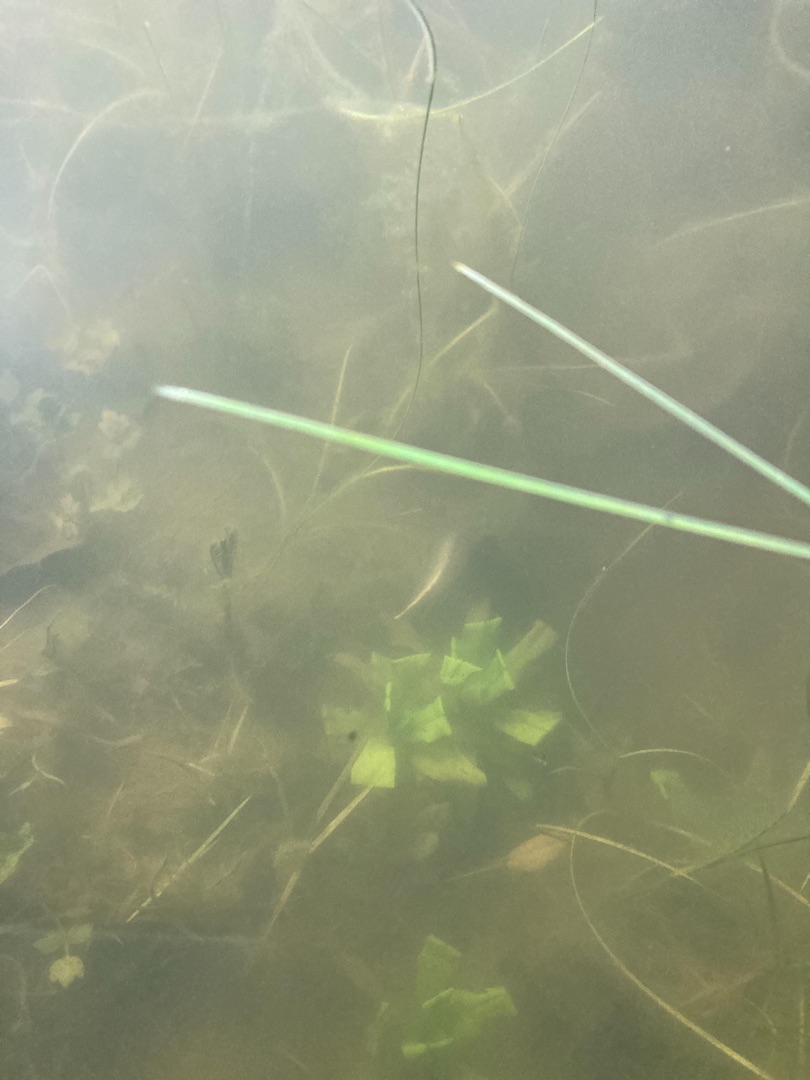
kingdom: Animalia
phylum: Chordata
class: Amphibia
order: Caudata
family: Salamandridae
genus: Triturus
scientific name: Triturus cristatus
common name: Stor vandsalamander
